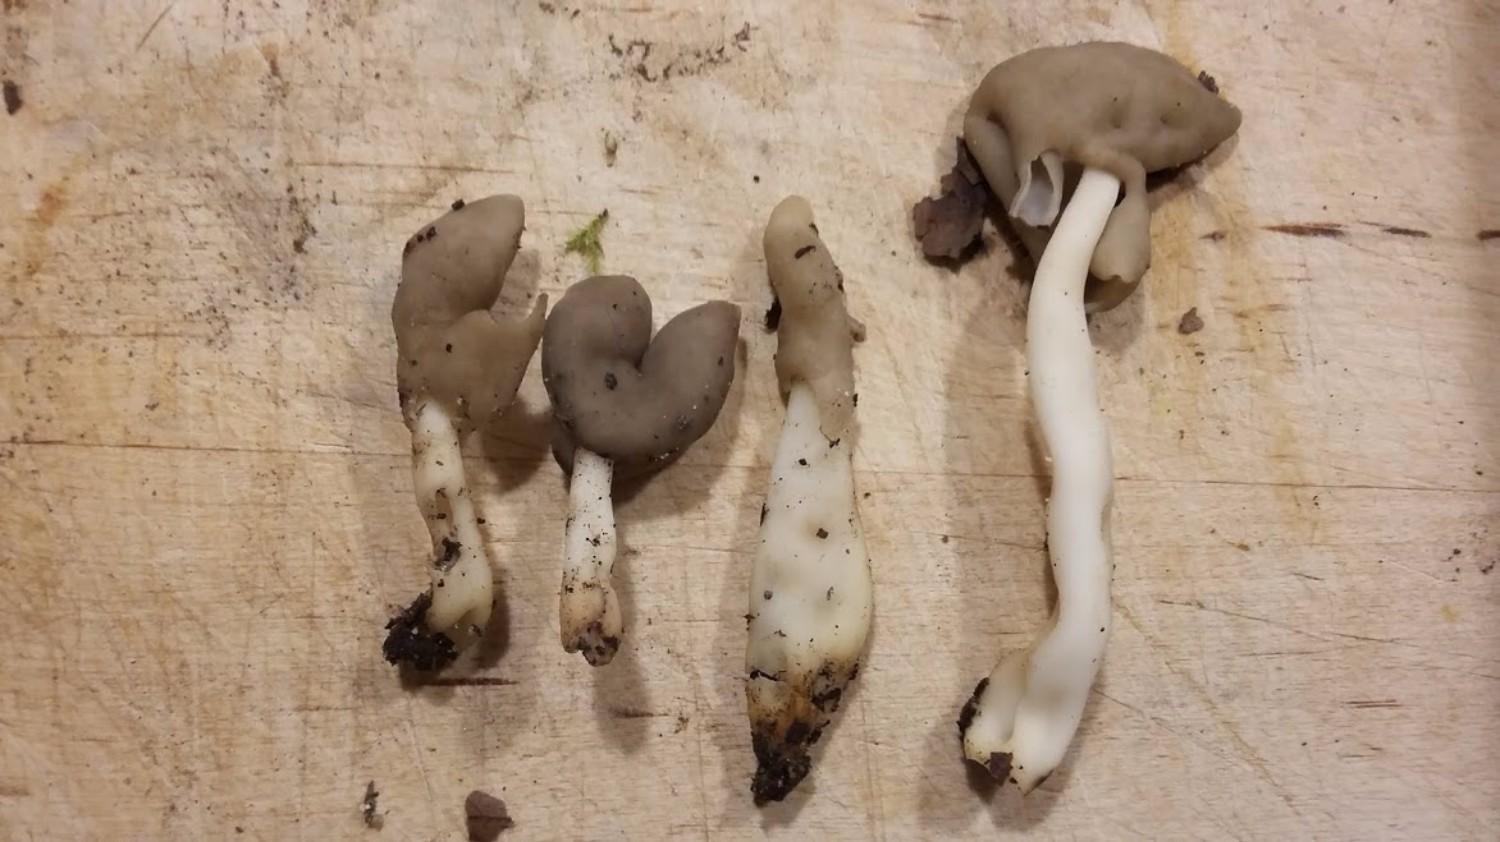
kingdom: Fungi
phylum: Ascomycota
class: Pezizomycetes
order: Pezizales
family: Helvellaceae
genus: Helvella
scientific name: Helvella elastica
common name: elastik-foldhat
